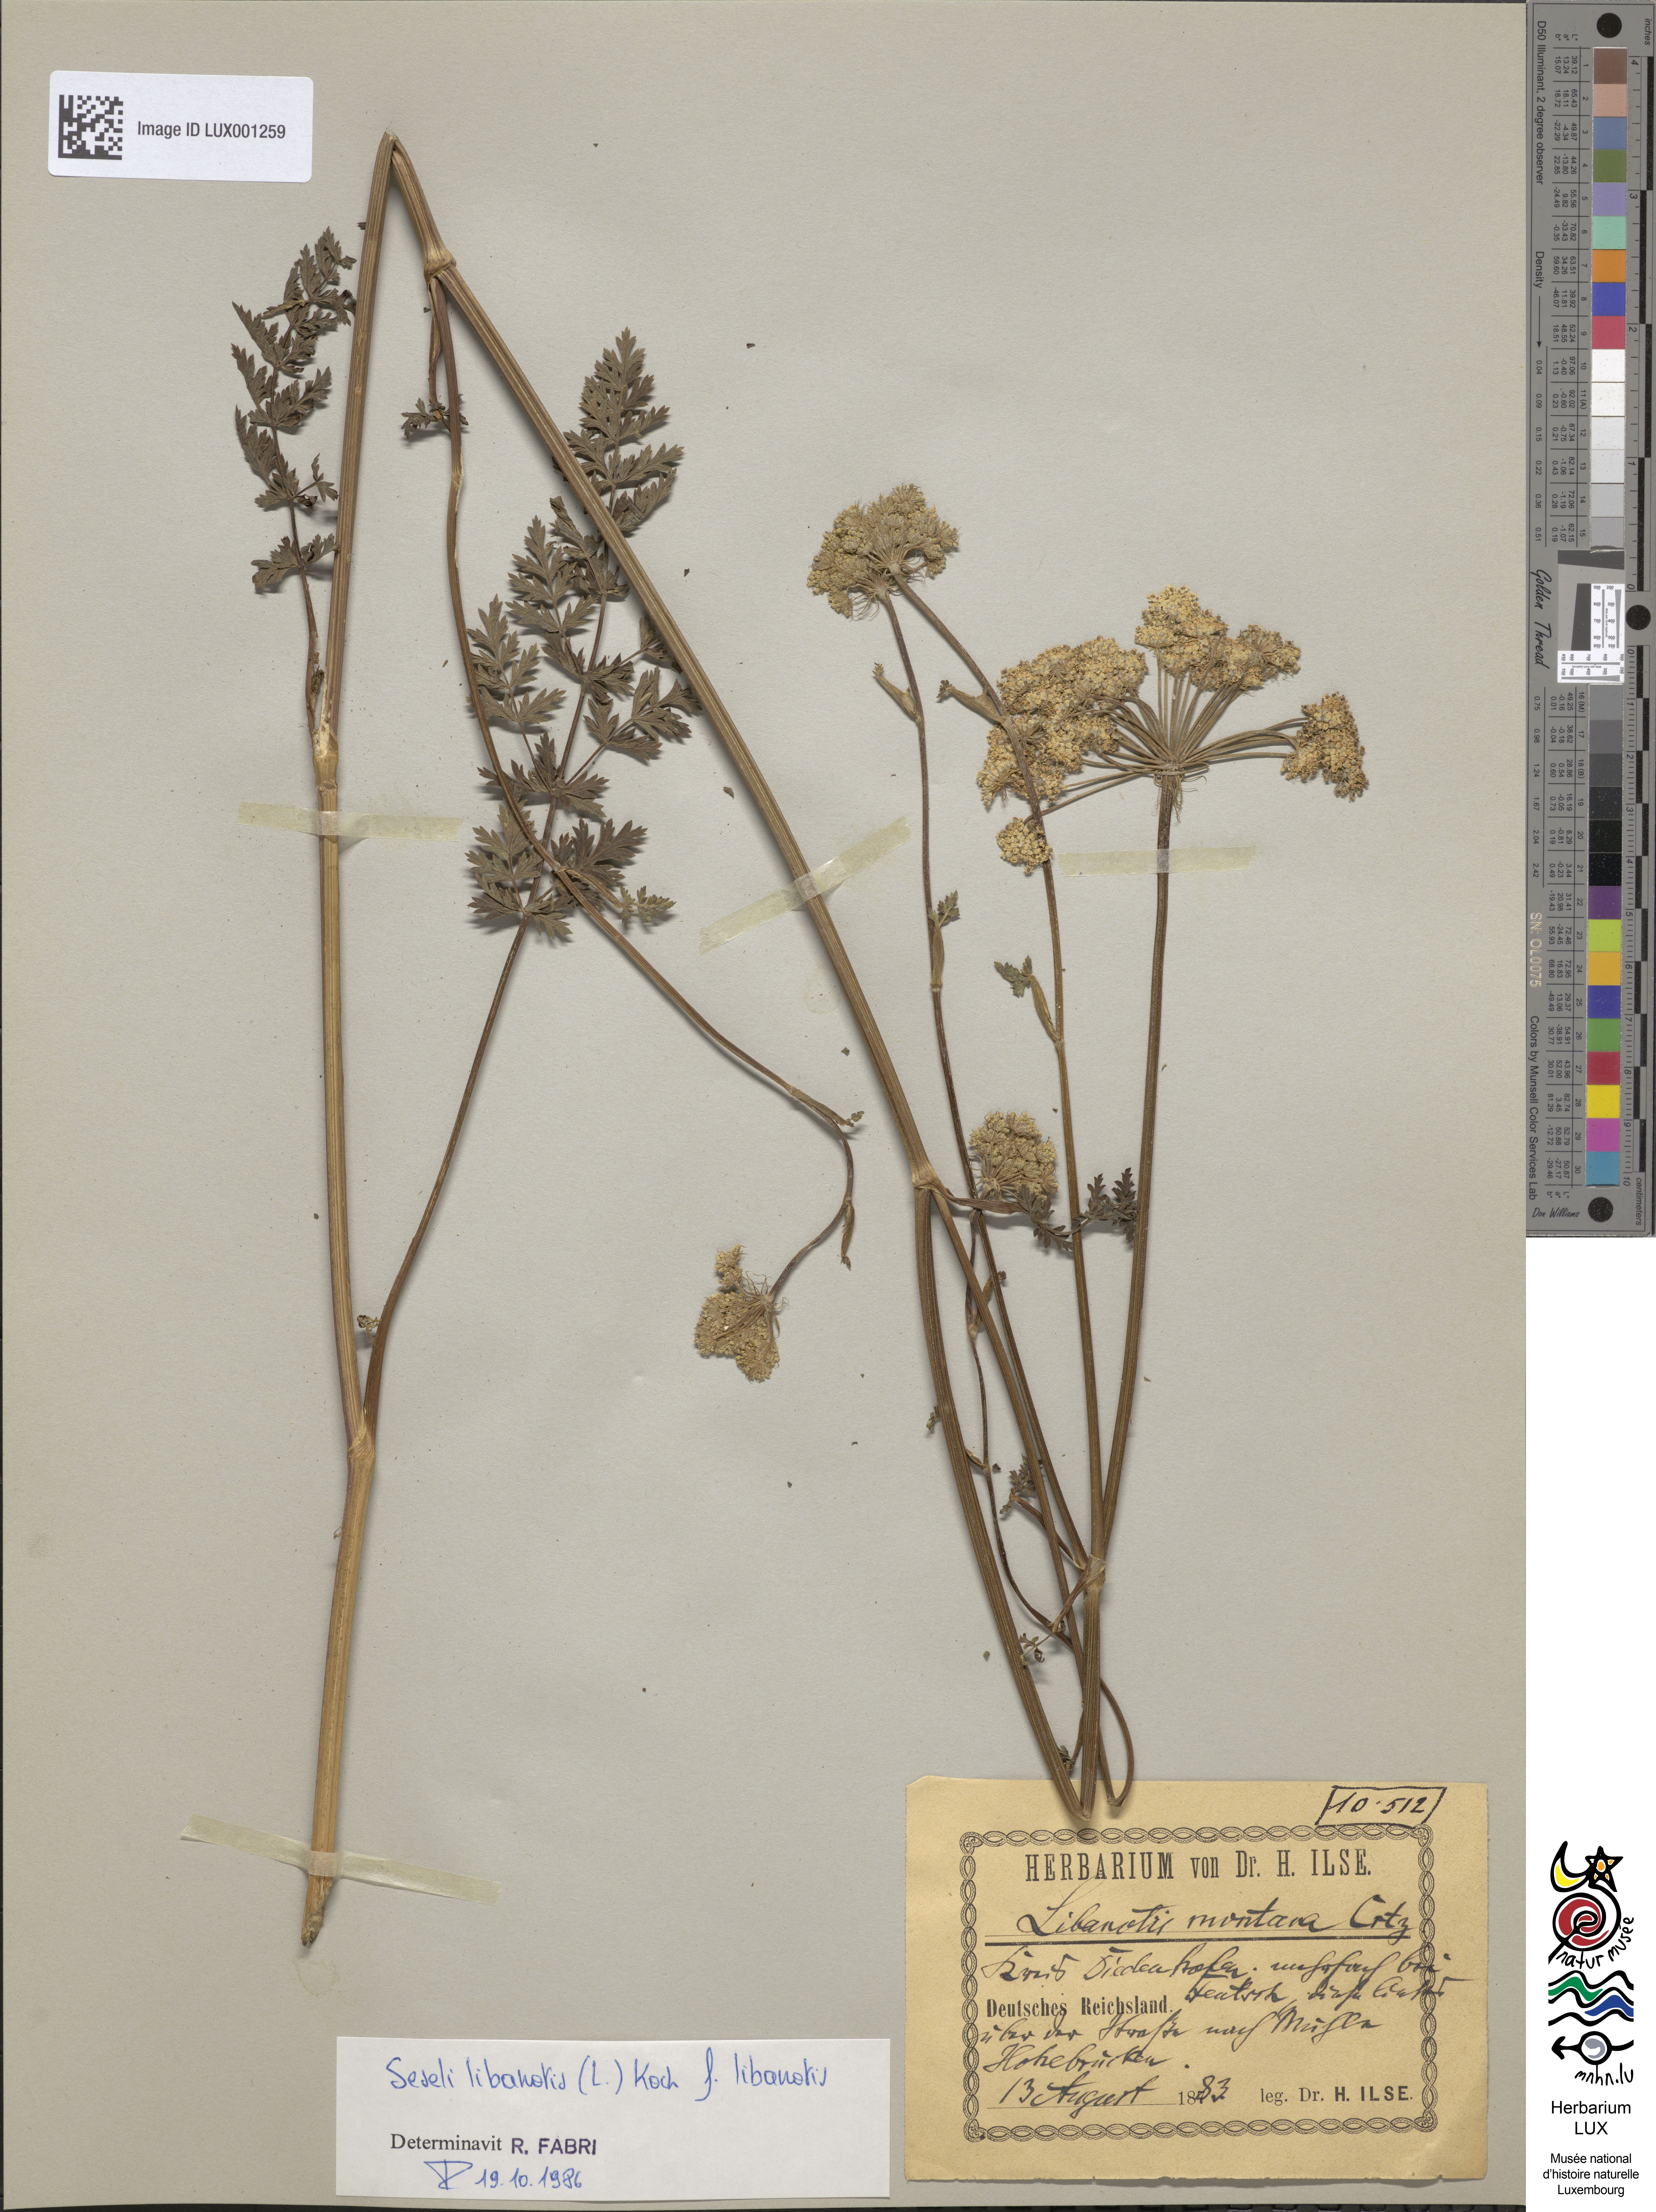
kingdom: Plantae
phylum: Tracheophyta
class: Magnoliopsida
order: Apiales
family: Apiaceae
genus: Seseli
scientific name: Seseli libanotis
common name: Mooncarrot
